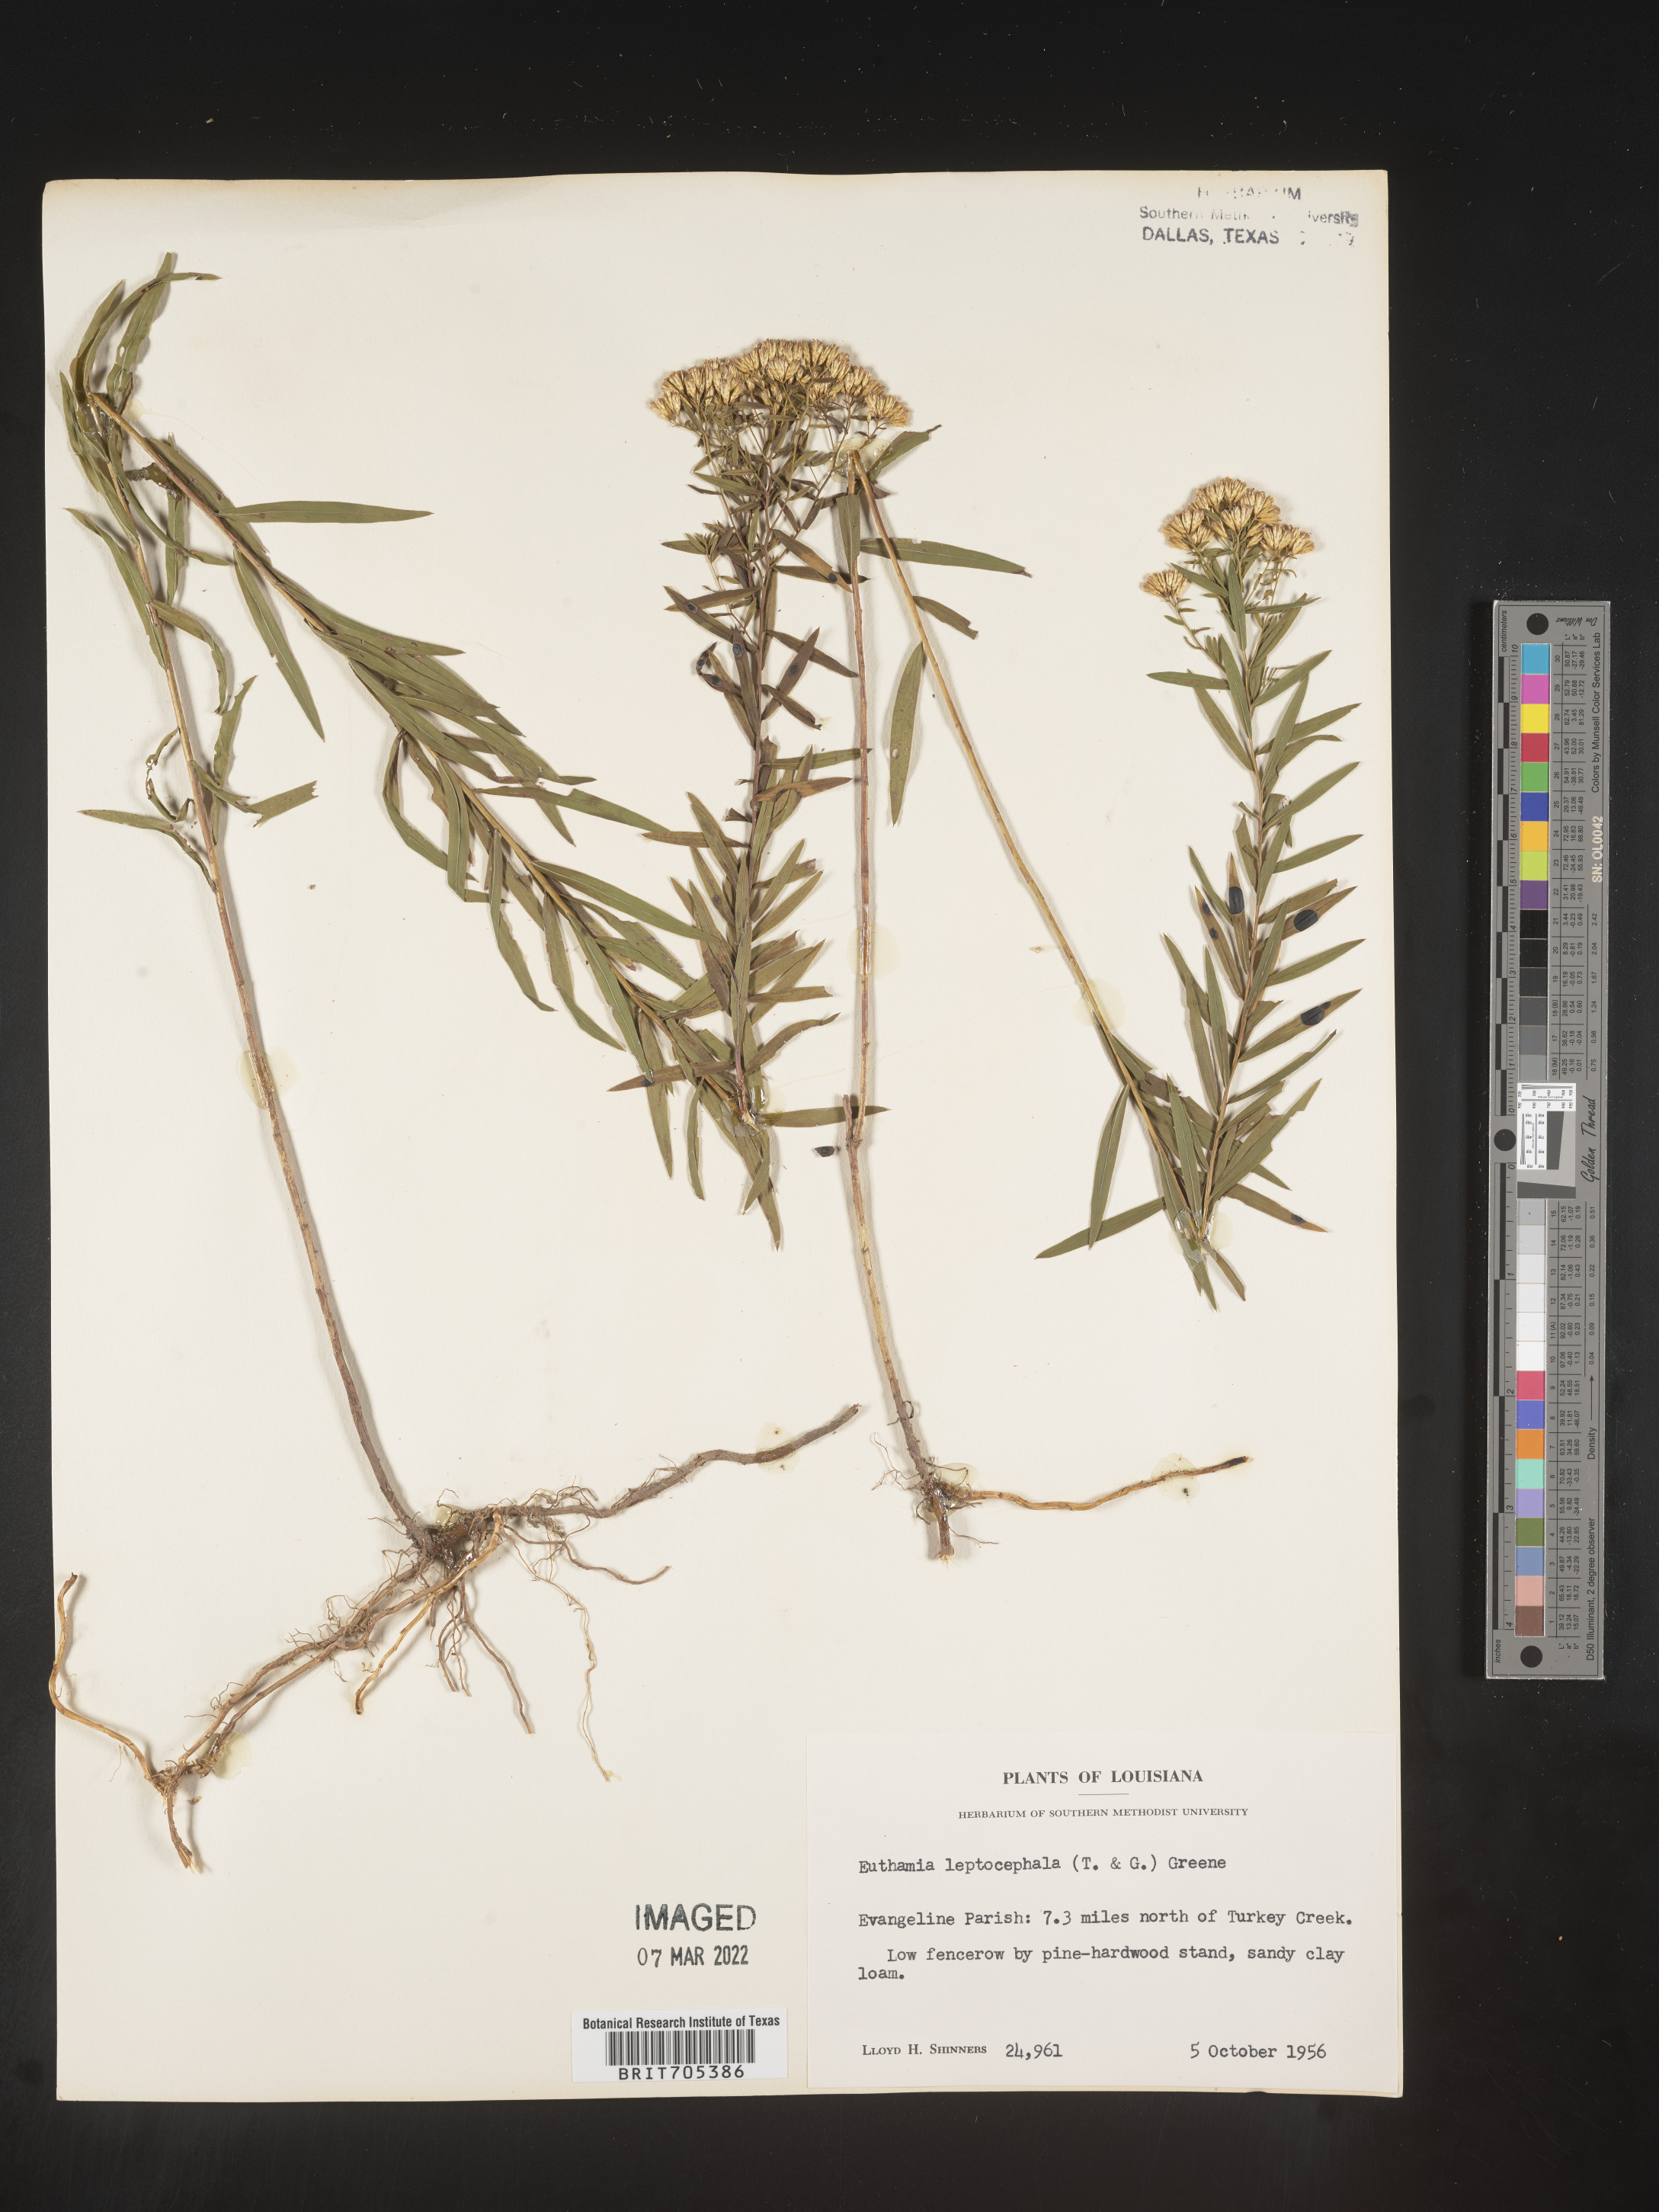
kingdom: Plantae
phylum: Tracheophyta
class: Magnoliopsida
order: Asterales
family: Asteraceae
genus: Euthamia
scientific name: Euthamia leptocephala
